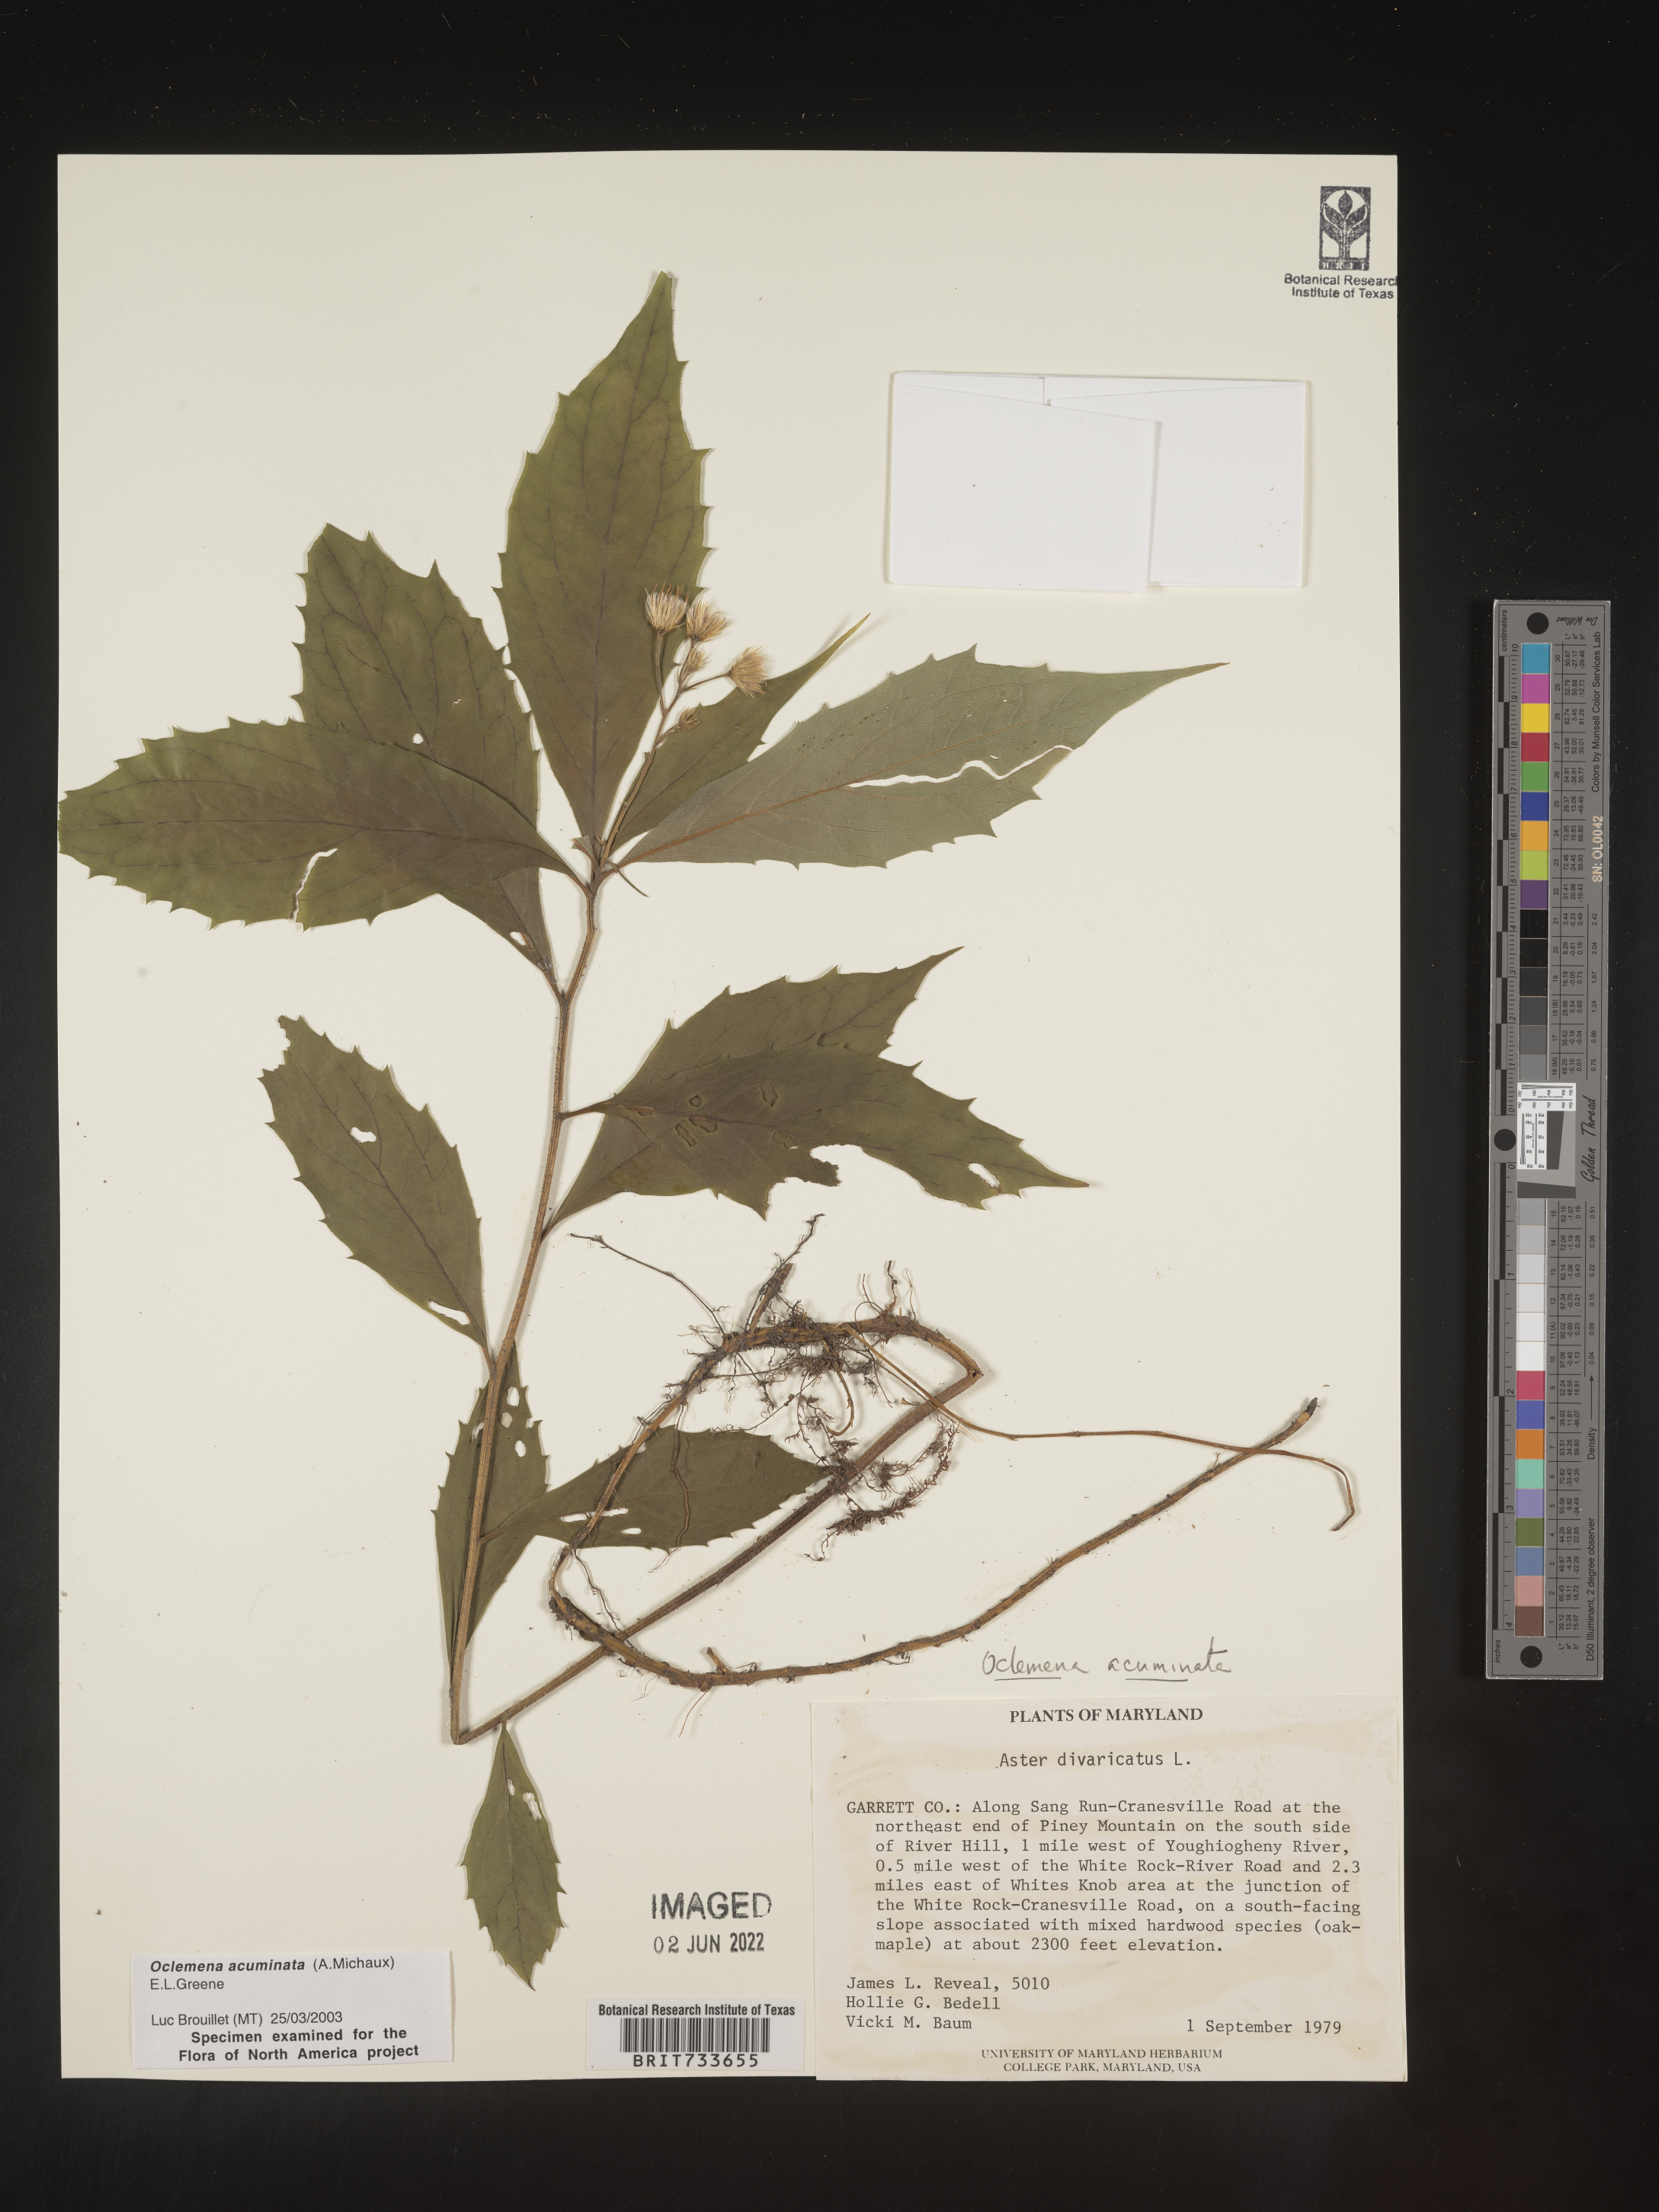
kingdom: Plantae
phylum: Tracheophyta
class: Magnoliopsida
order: Asterales
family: Asteraceae
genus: Oclemena
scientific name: Oclemena acuminata
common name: Mountain aster
